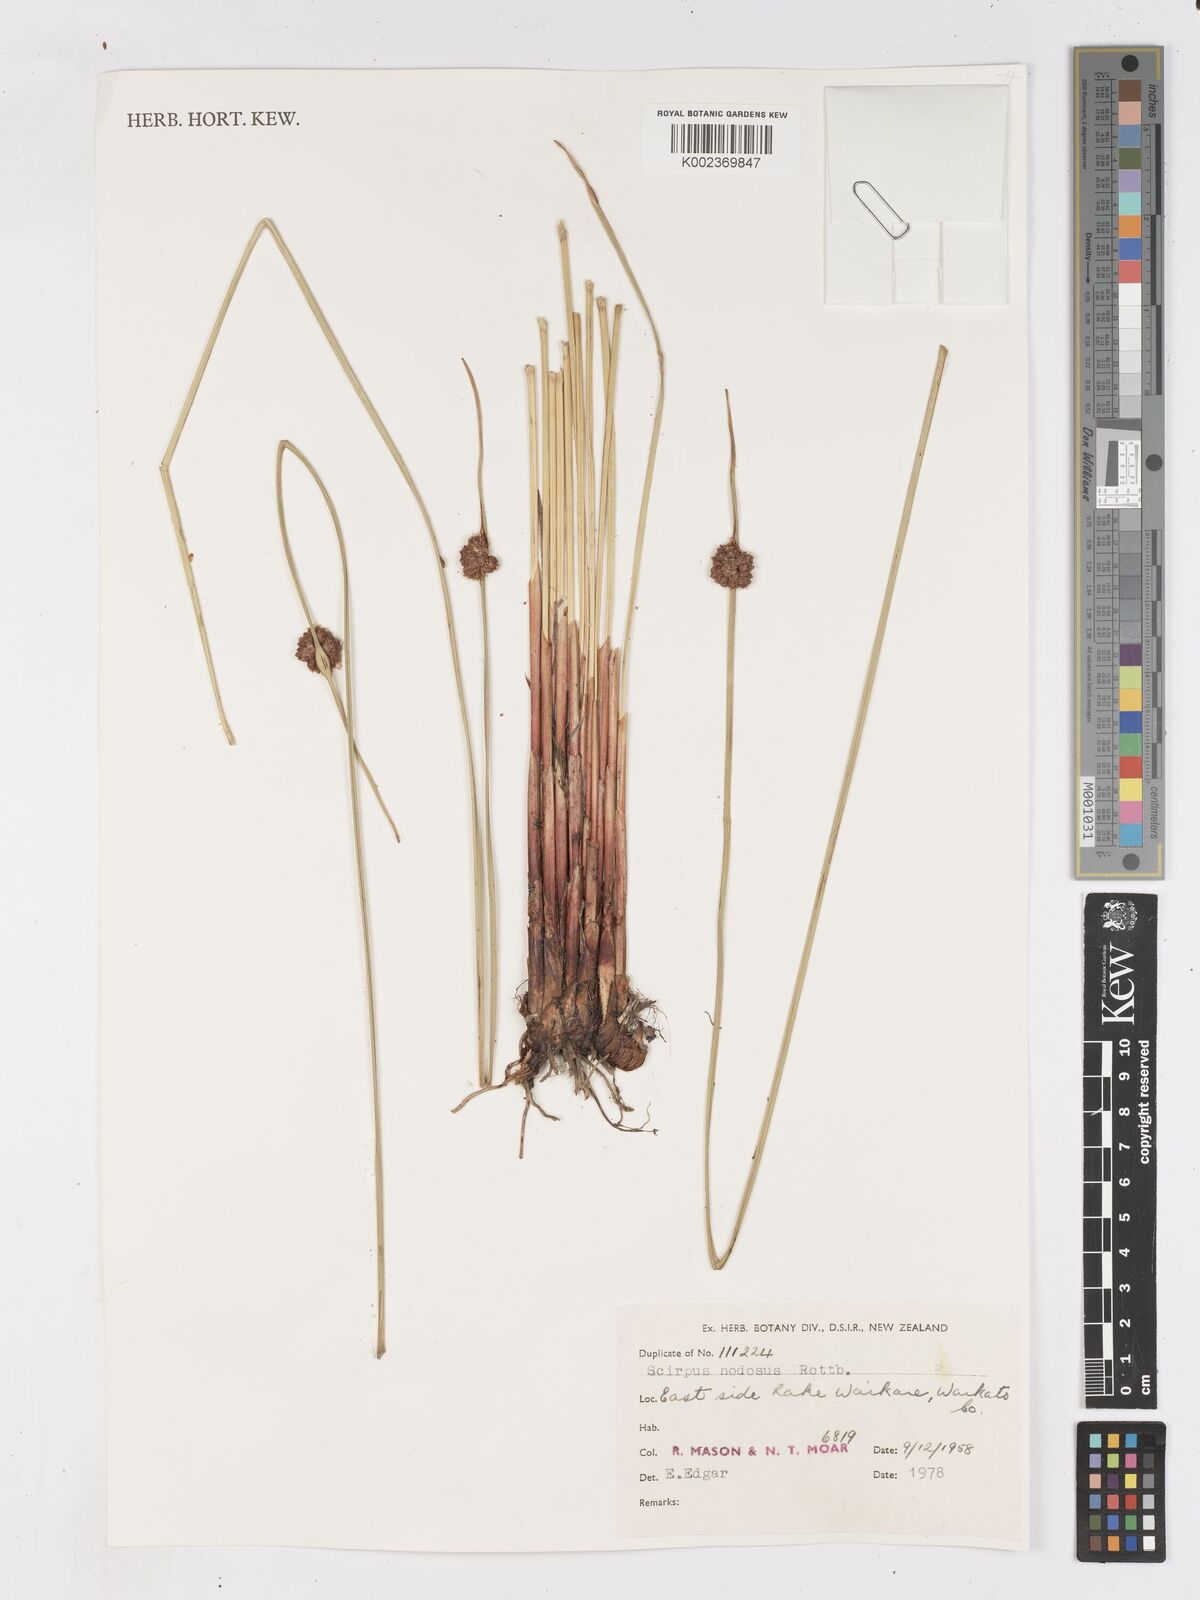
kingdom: Plantae
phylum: Tracheophyta
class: Liliopsida
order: Poales
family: Cyperaceae
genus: Ficinia
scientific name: Ficinia nodosa
